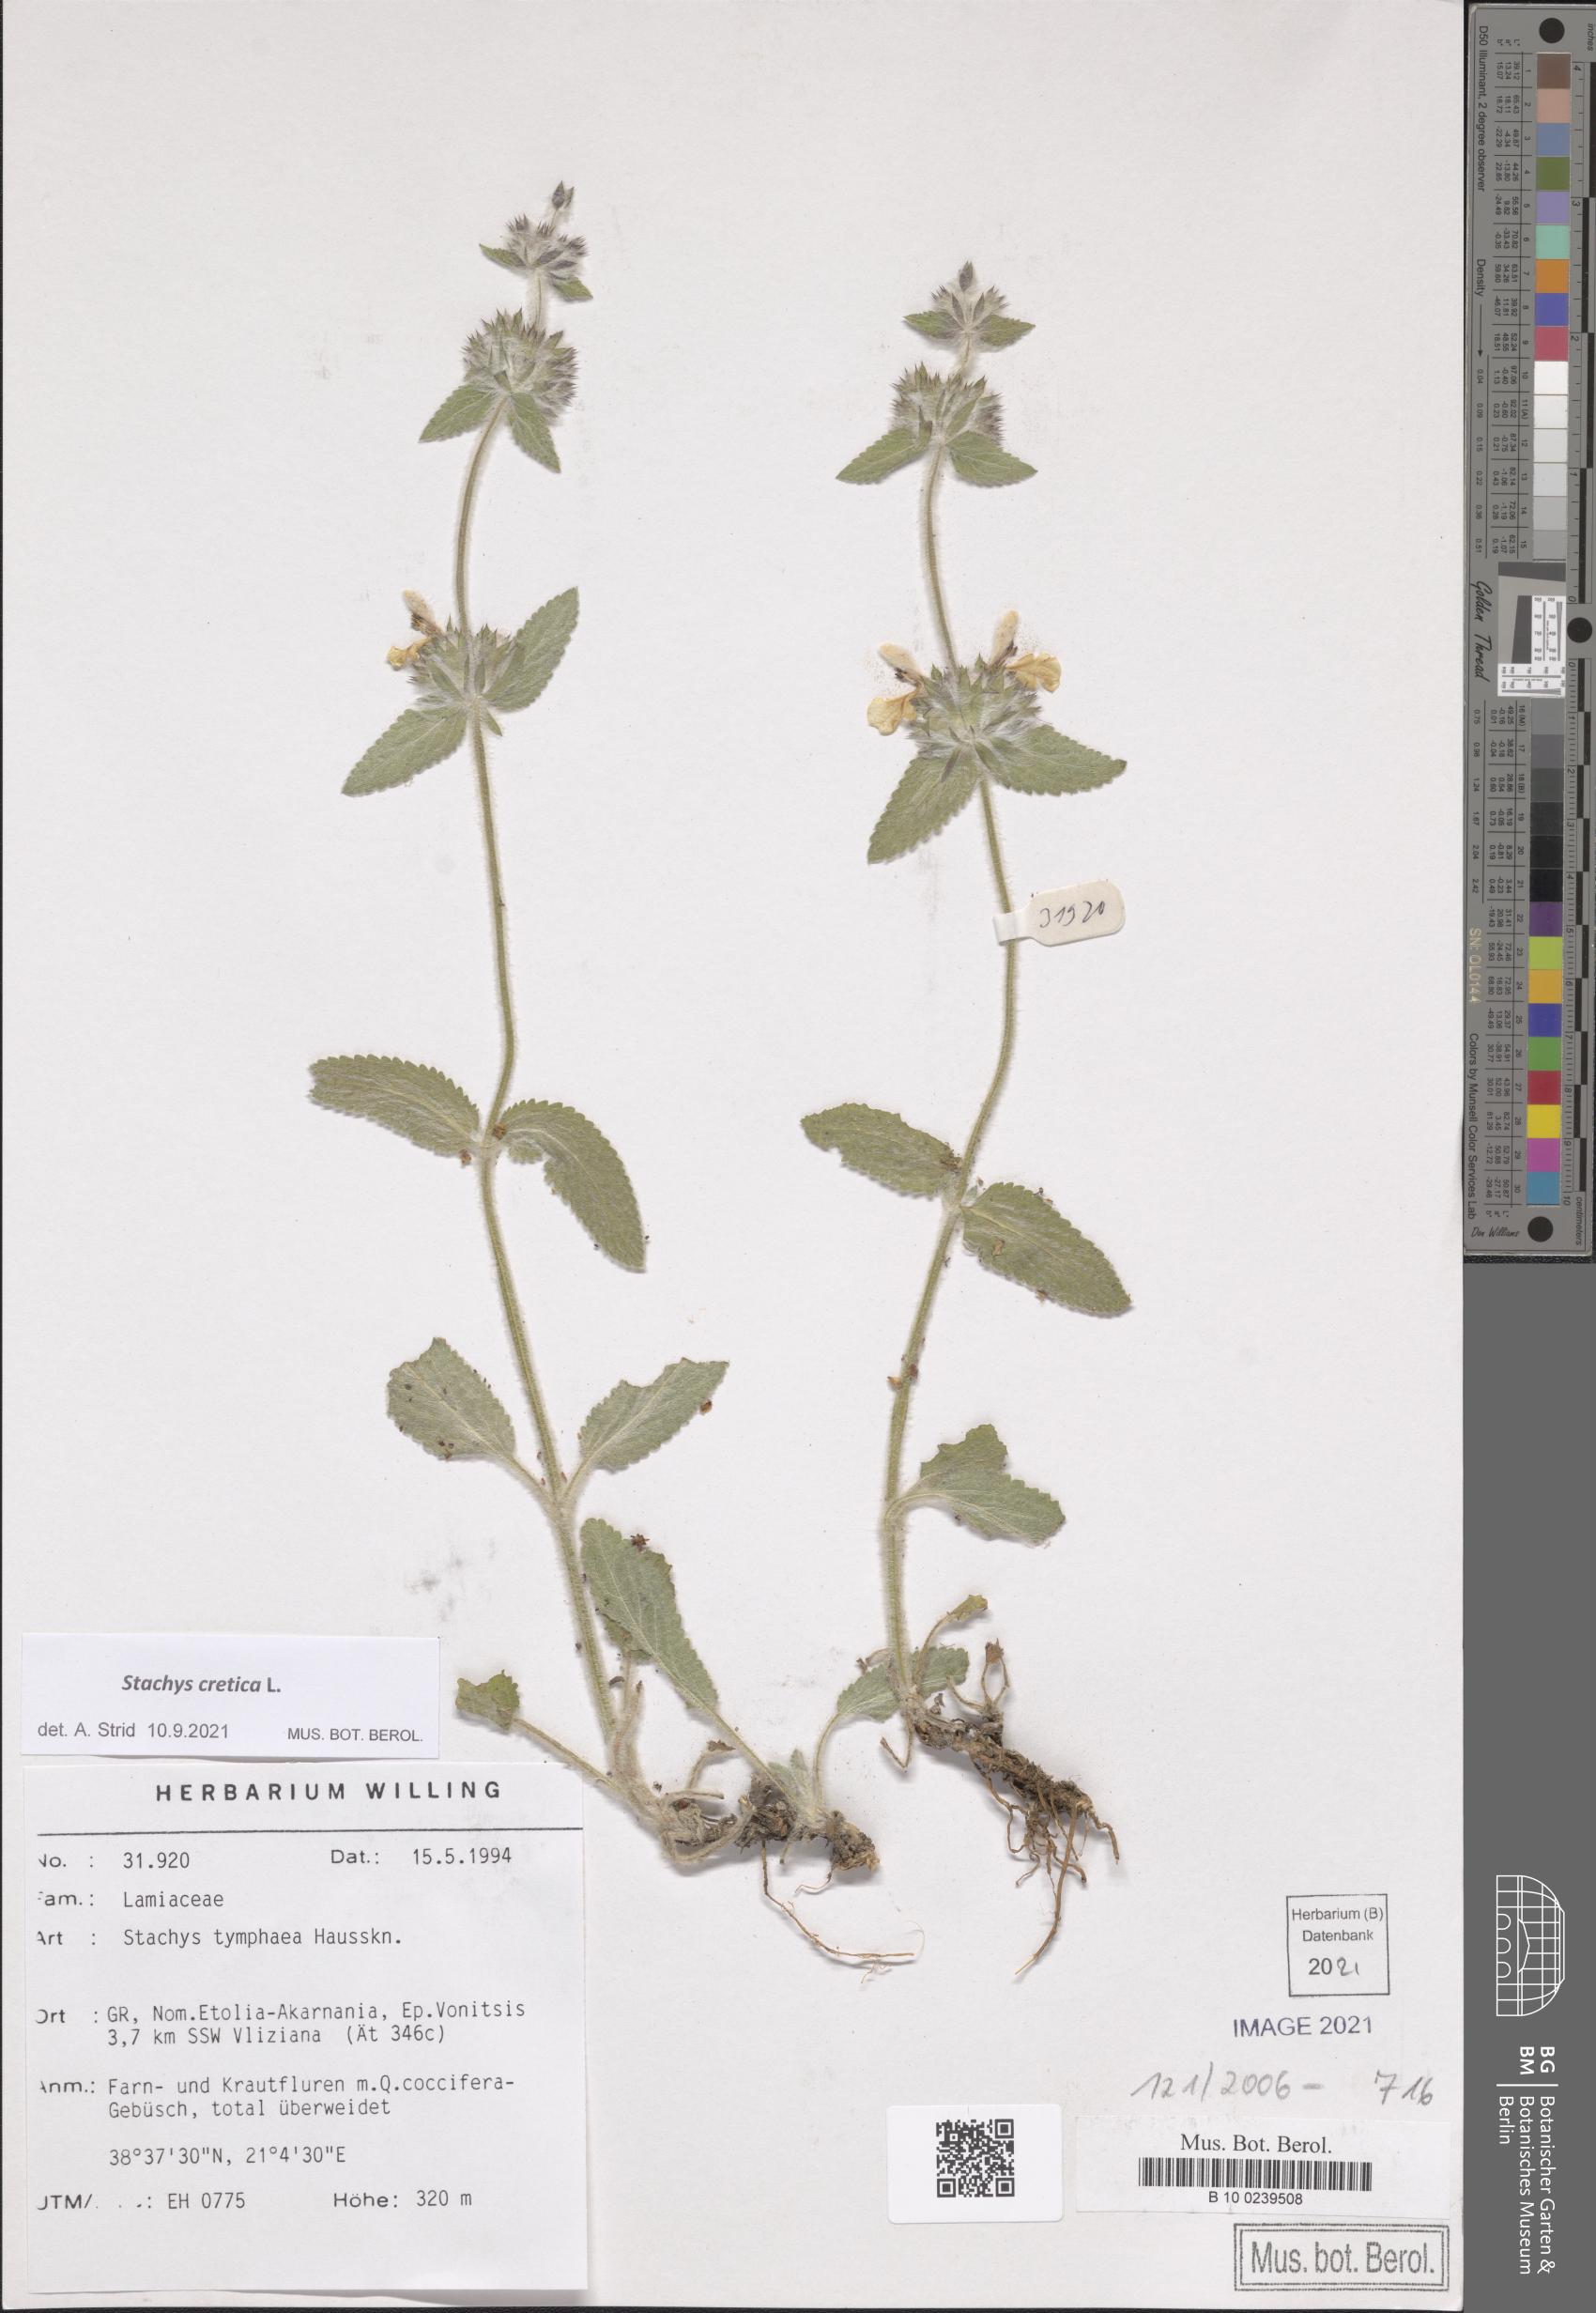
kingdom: Plantae
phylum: Tracheophyta
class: Magnoliopsida
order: Lamiales
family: Lamiaceae
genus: Stachys
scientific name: Stachys cretica
